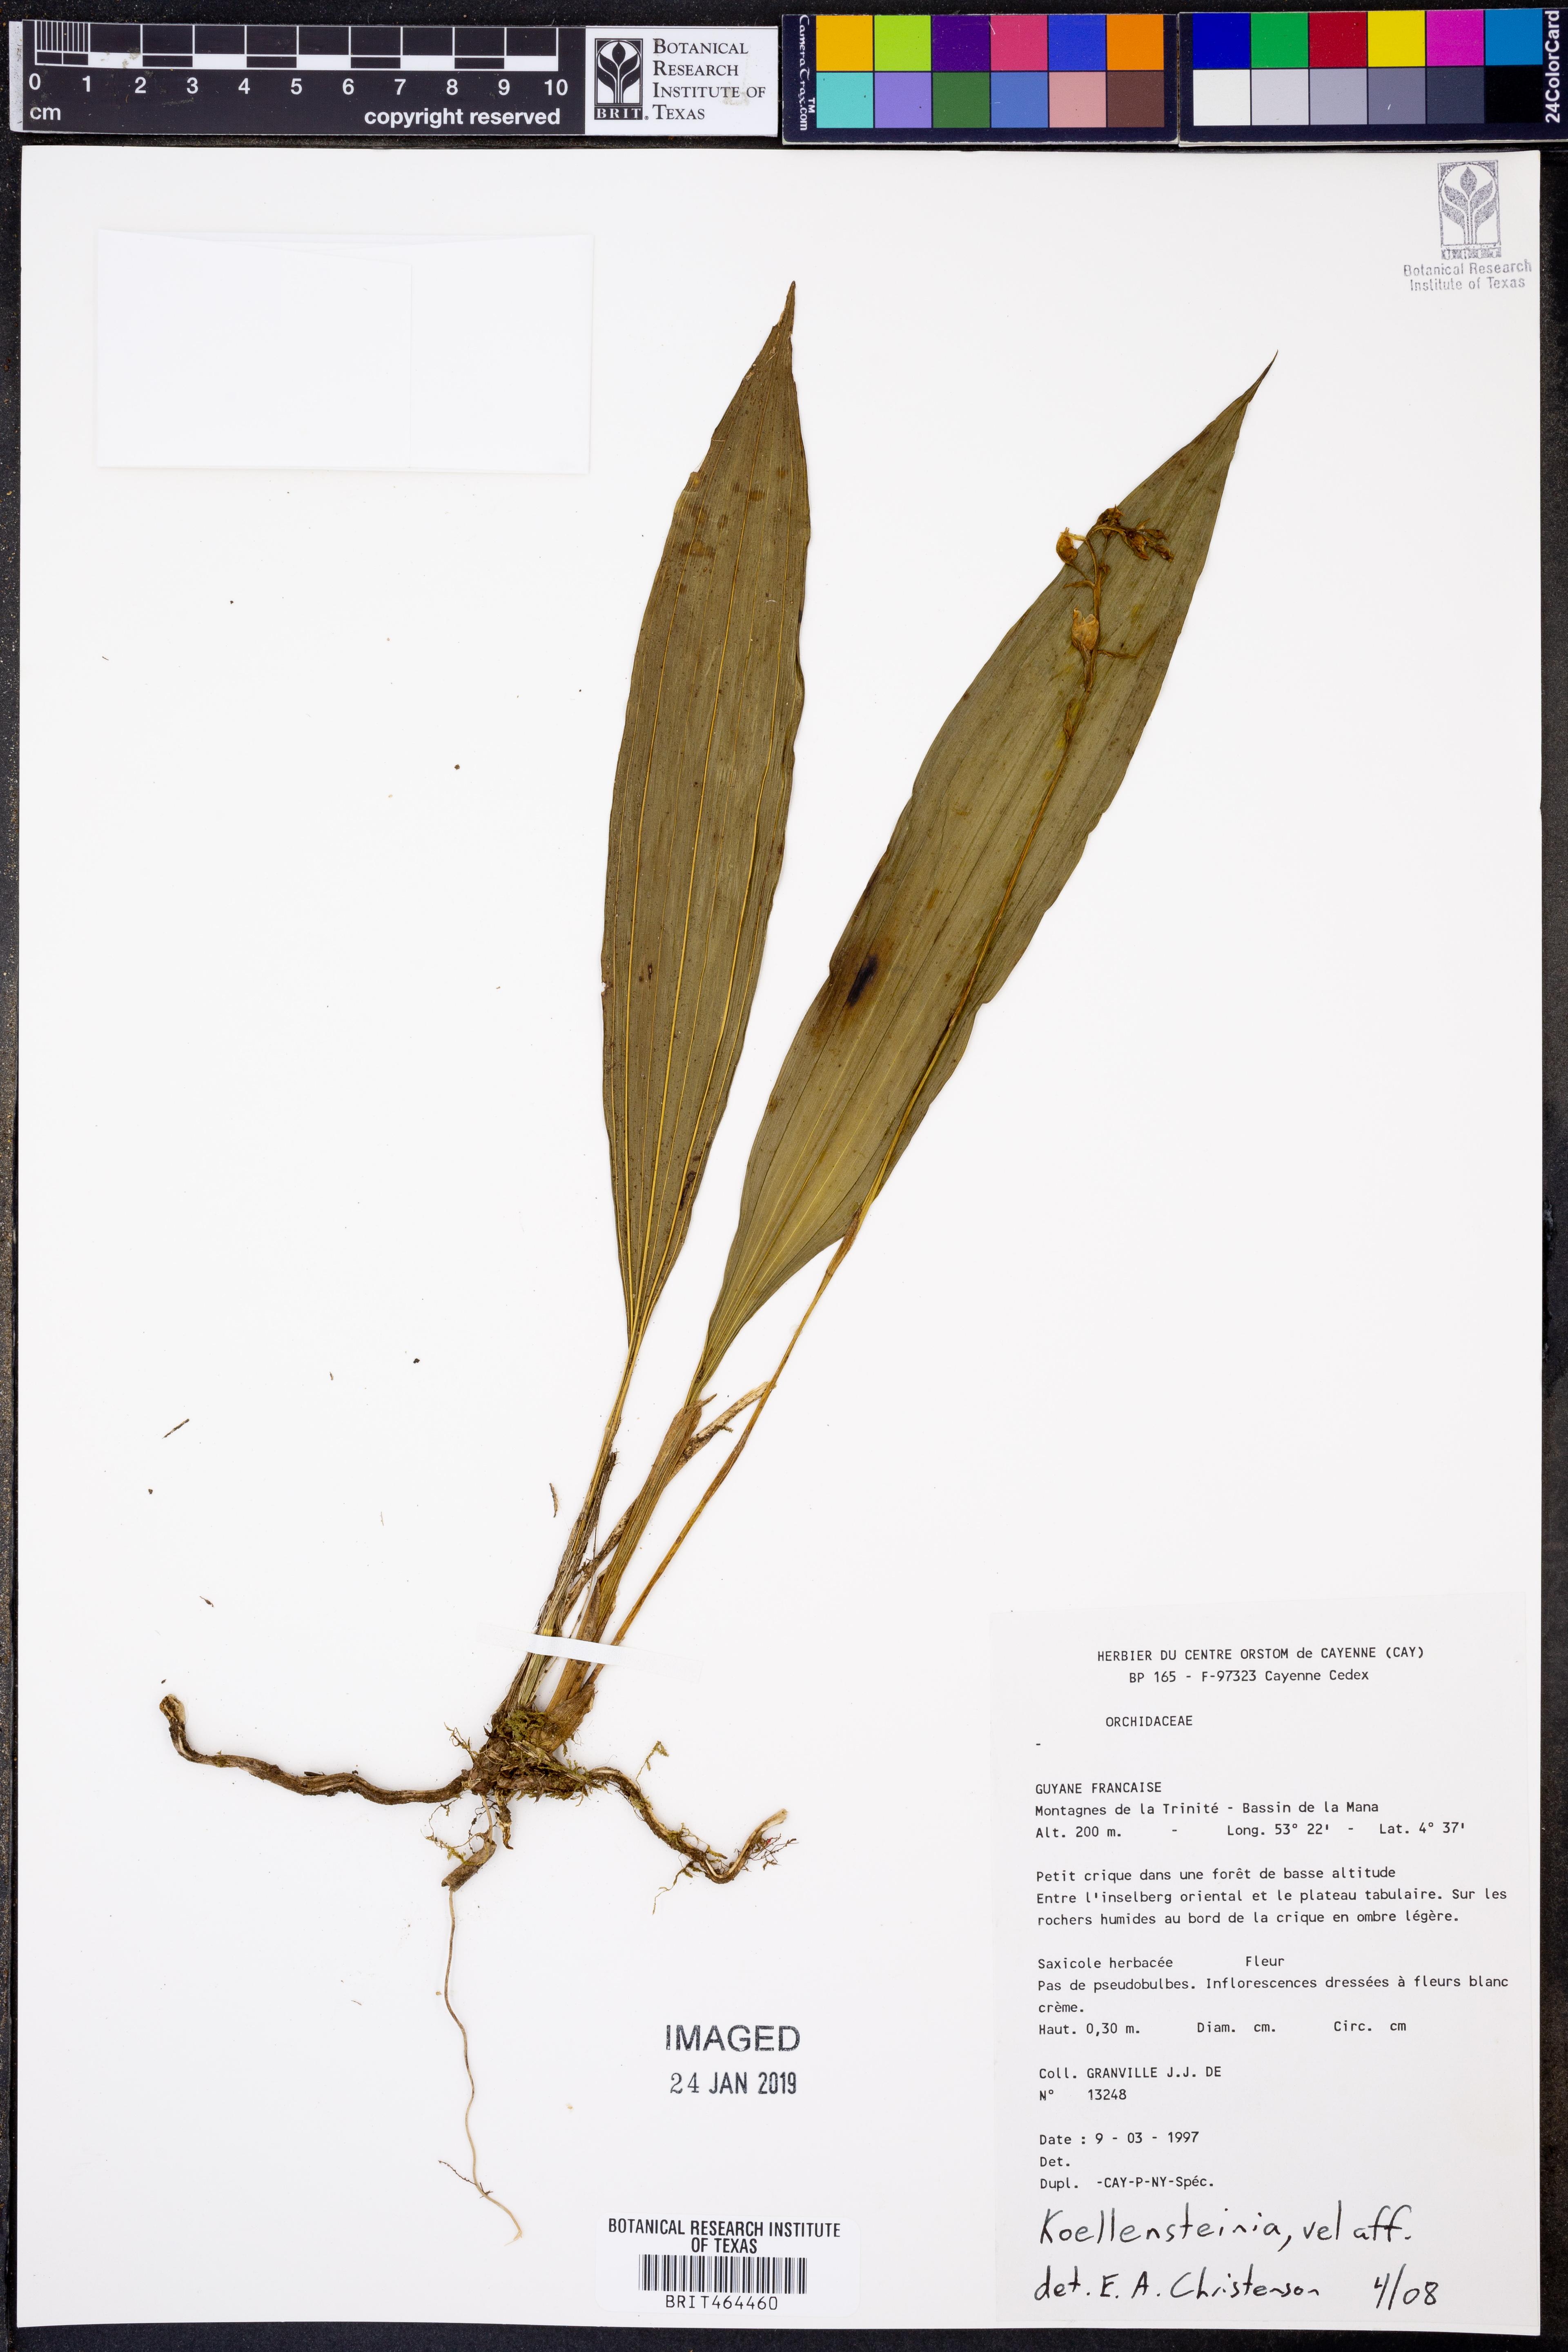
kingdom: Plantae
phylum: Tracheophyta
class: Liliopsida
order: Asparagales
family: Orchidaceae
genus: Koellensteinia
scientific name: Koellensteinia
